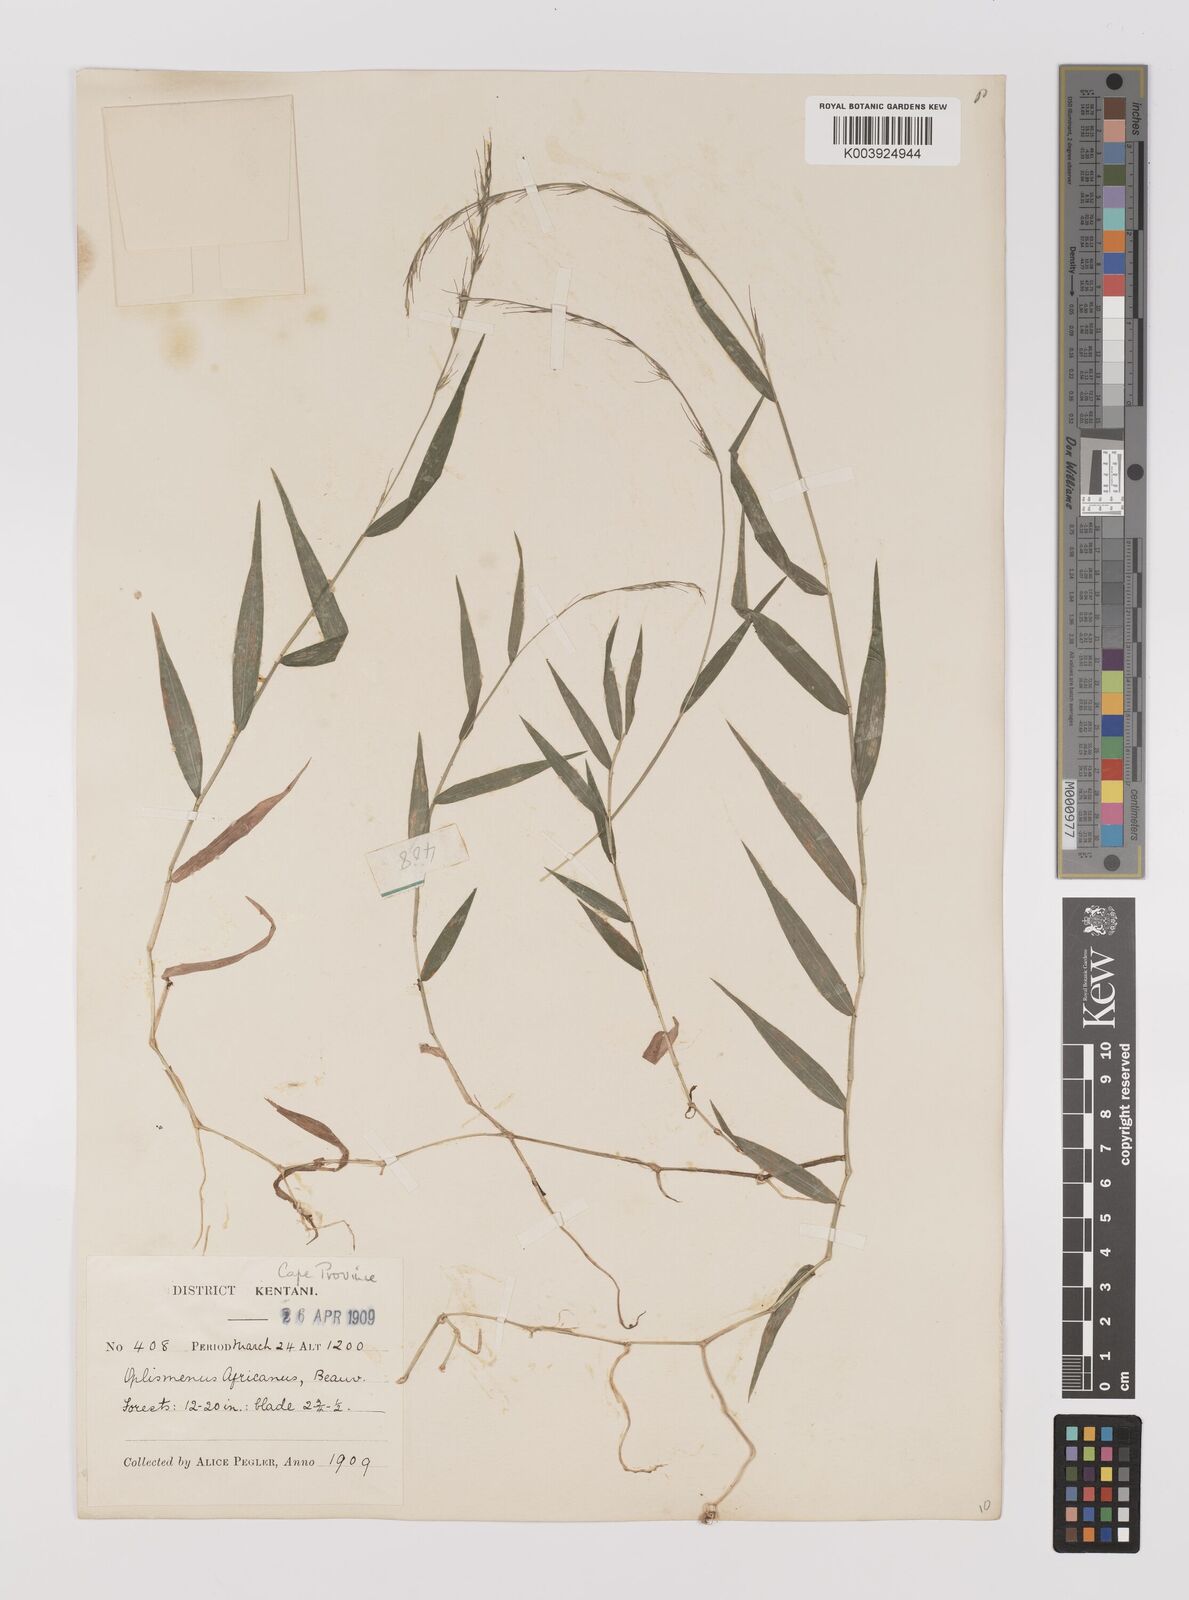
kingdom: Plantae
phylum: Tracheophyta
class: Liliopsida
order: Poales
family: Poaceae
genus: Oplismenus
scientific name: Oplismenus undulatifolius
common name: Wavyleaf basketgrass
